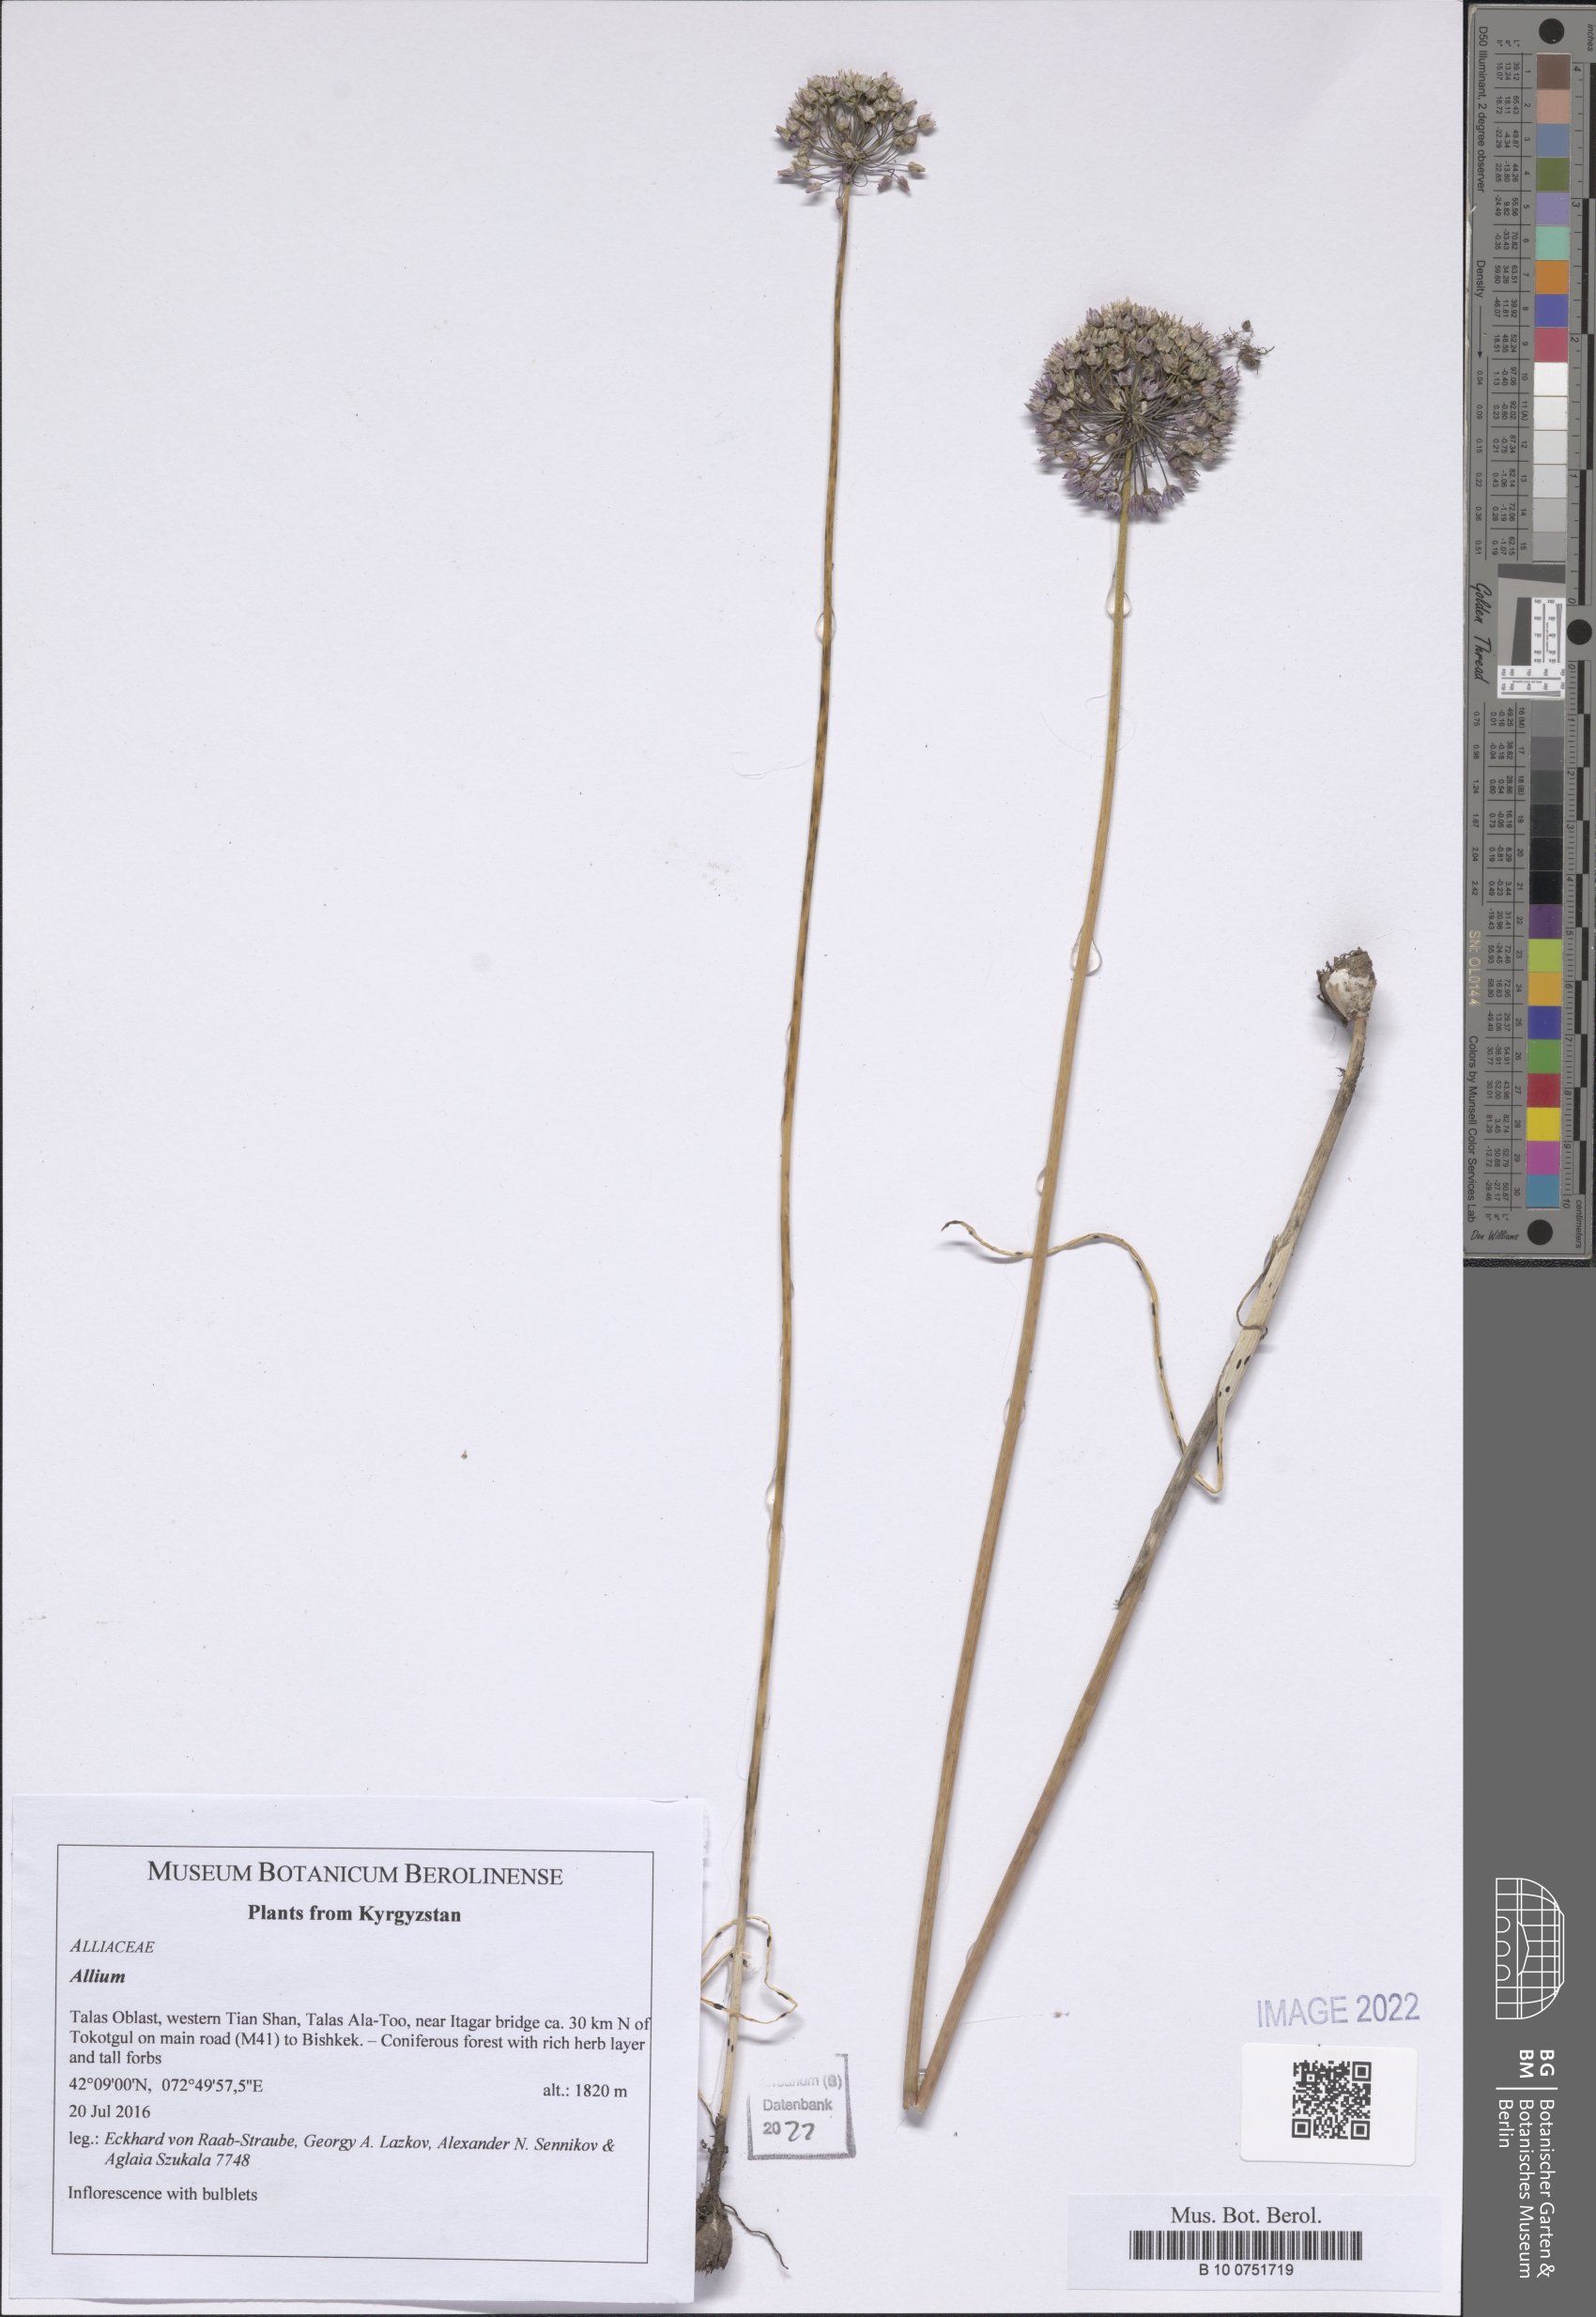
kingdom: Plantae
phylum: Tracheophyta
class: Liliopsida
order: Asparagales
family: Amaryllidaceae
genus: Allium
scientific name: Allium
